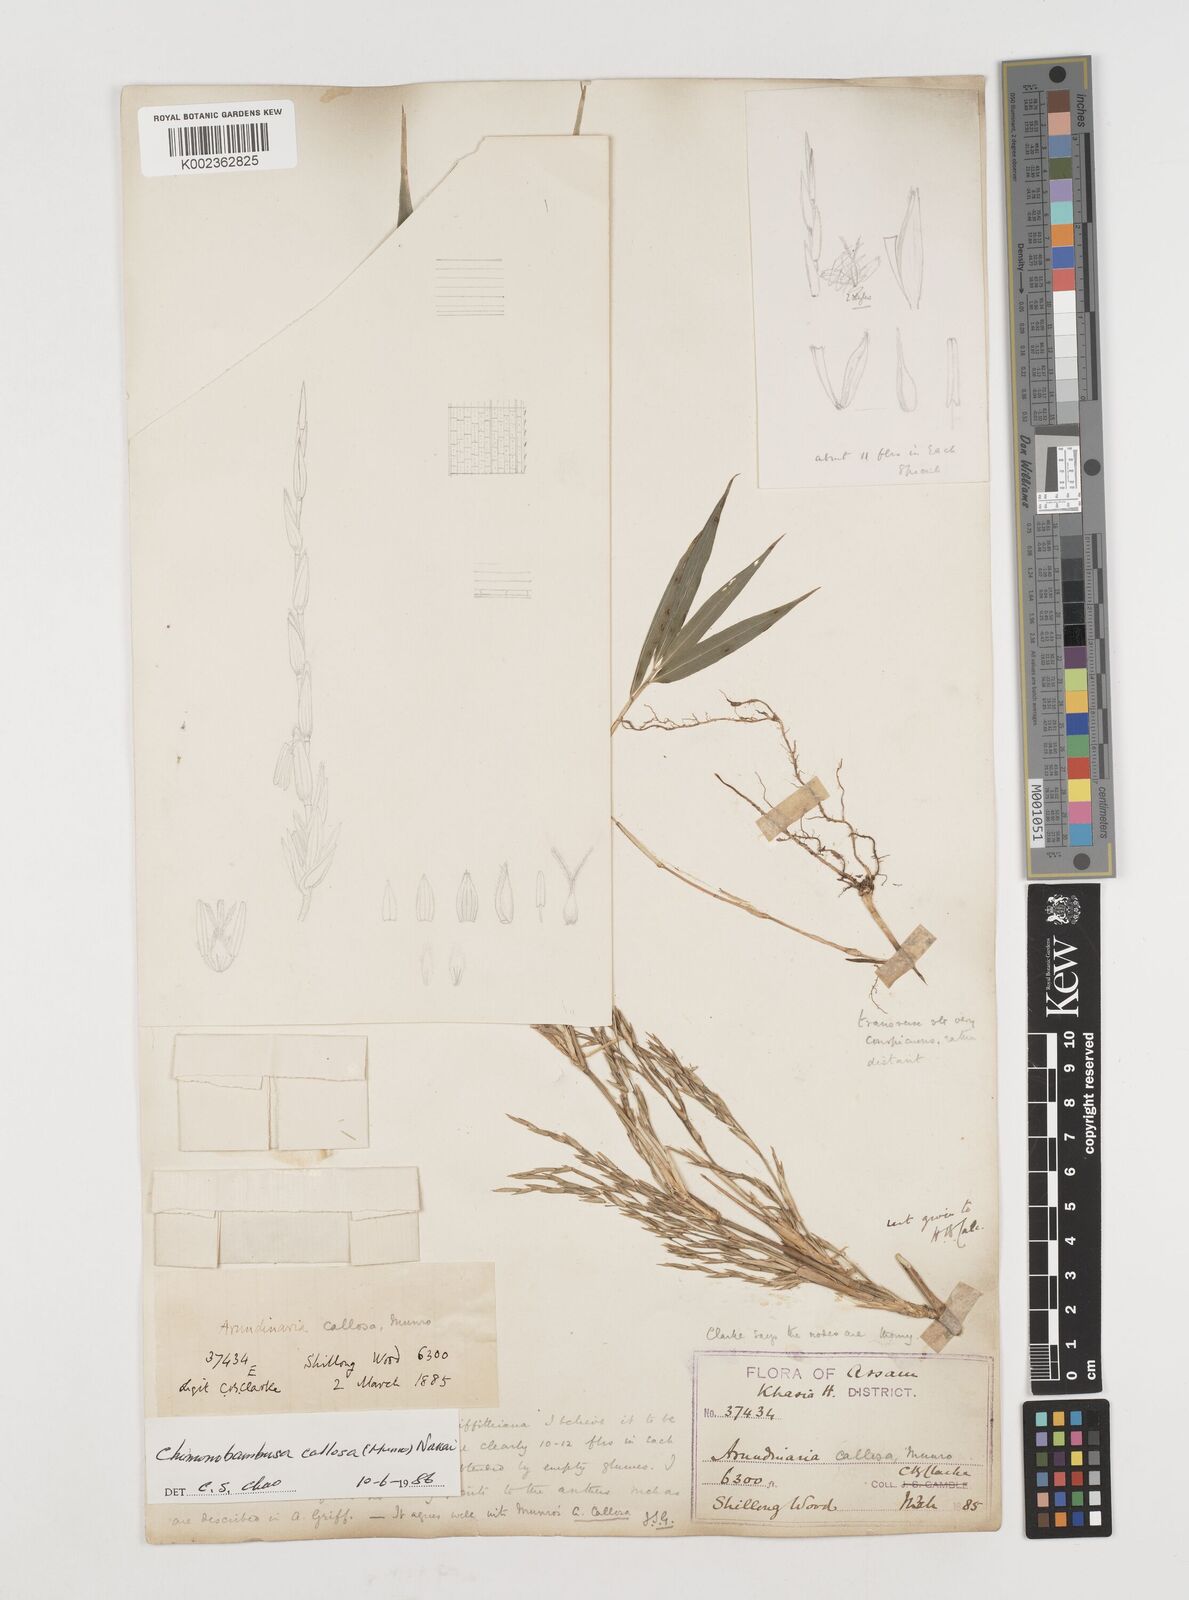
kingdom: Plantae
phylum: Tracheophyta
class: Liliopsida
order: Poales
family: Poaceae
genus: Chimonobambusa
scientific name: Chimonobambusa callosa
